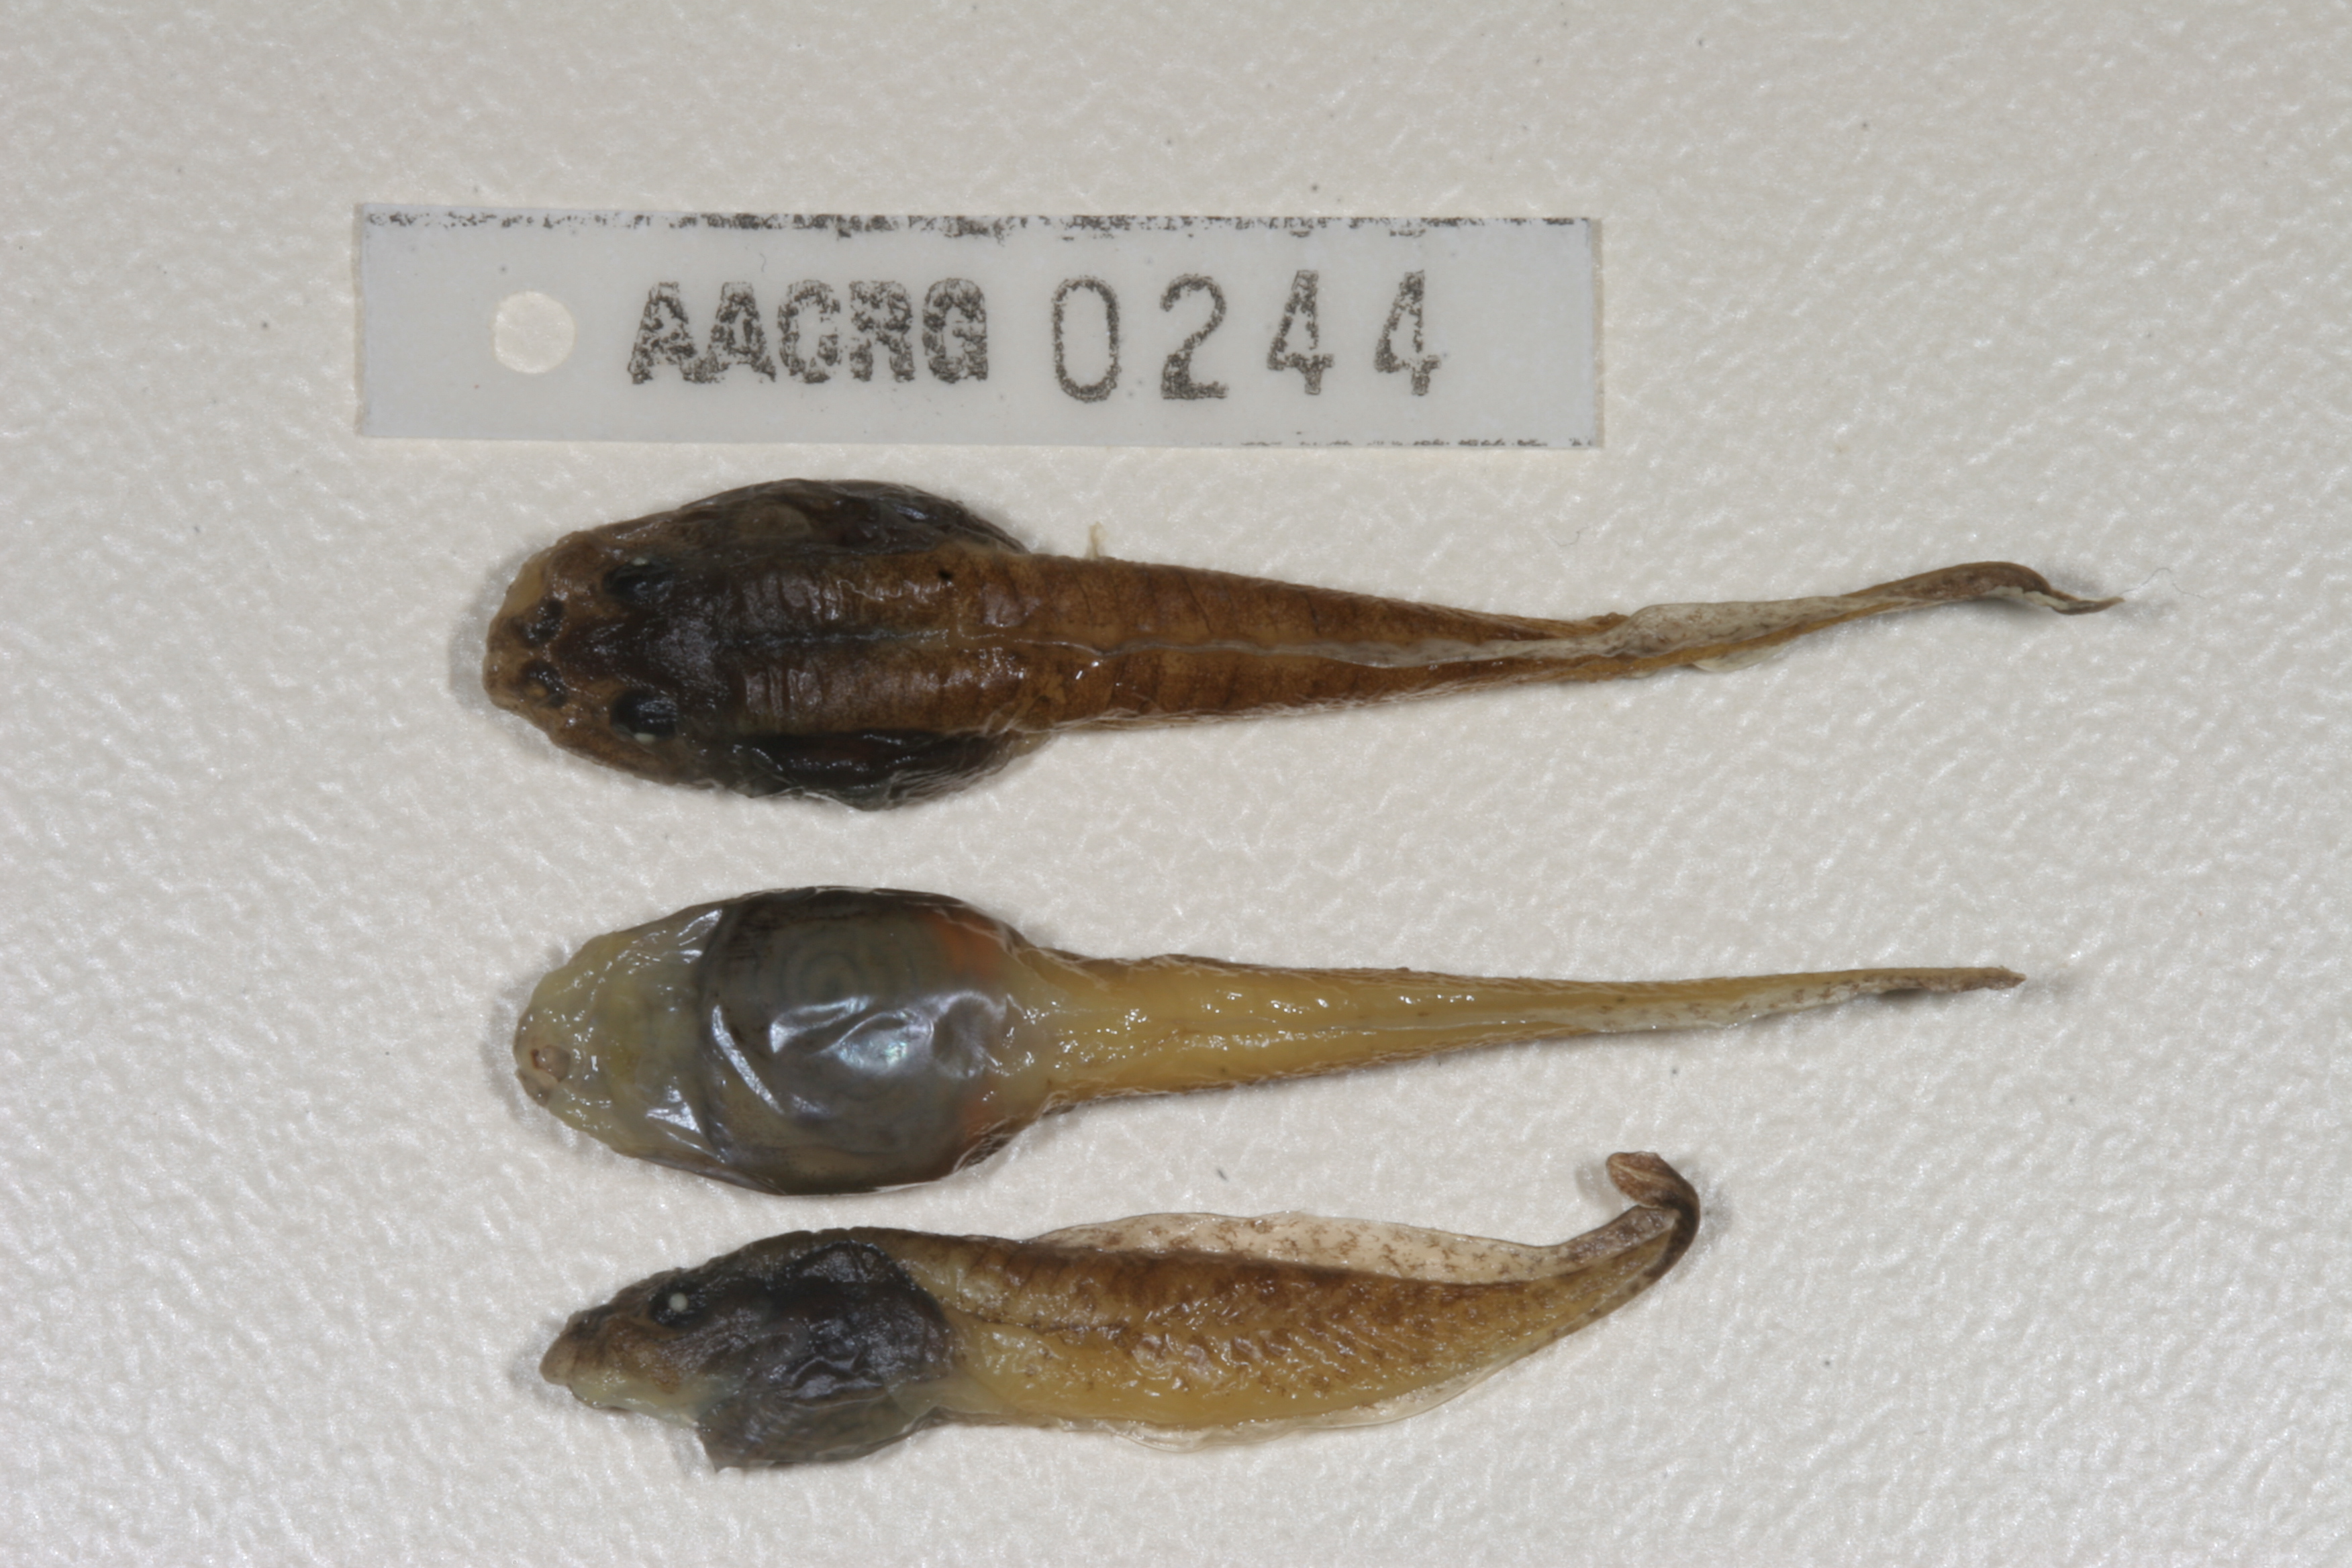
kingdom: Animalia
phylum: Chordata
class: Amphibia
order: Anura
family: Pyxicephalidae
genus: Amietia
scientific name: Amietia angolensis
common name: Dusky-throated frog
